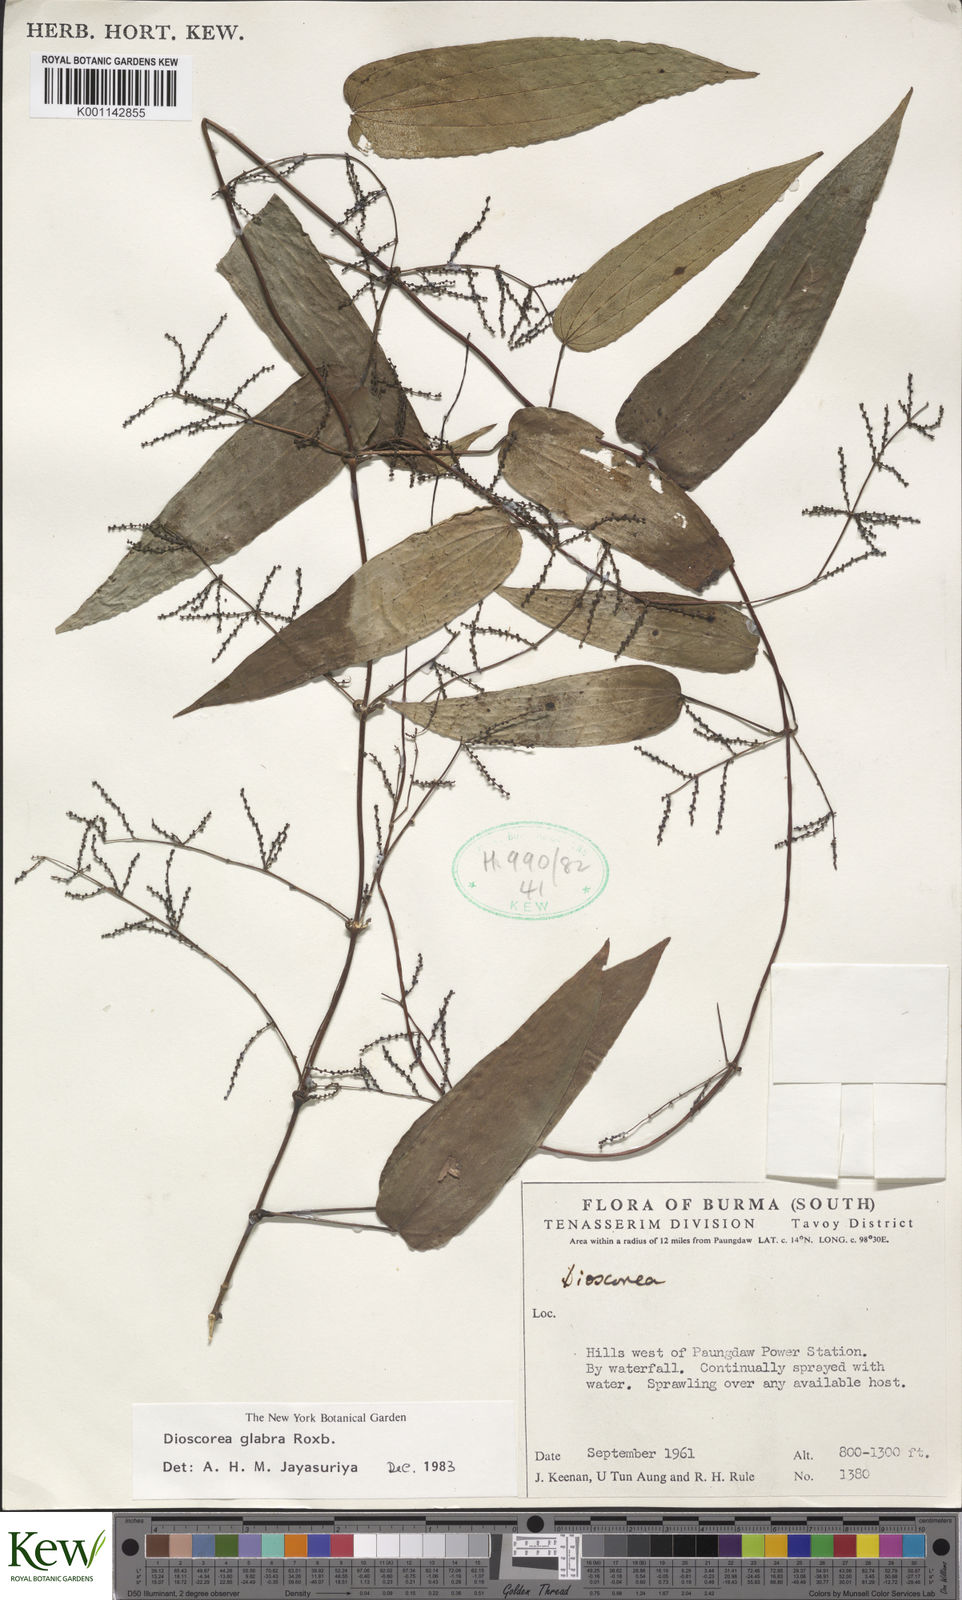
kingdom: Plantae
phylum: Tracheophyta
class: Liliopsida
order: Dioscoreales
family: Dioscoreaceae
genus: Dioscorea
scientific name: Dioscorea
